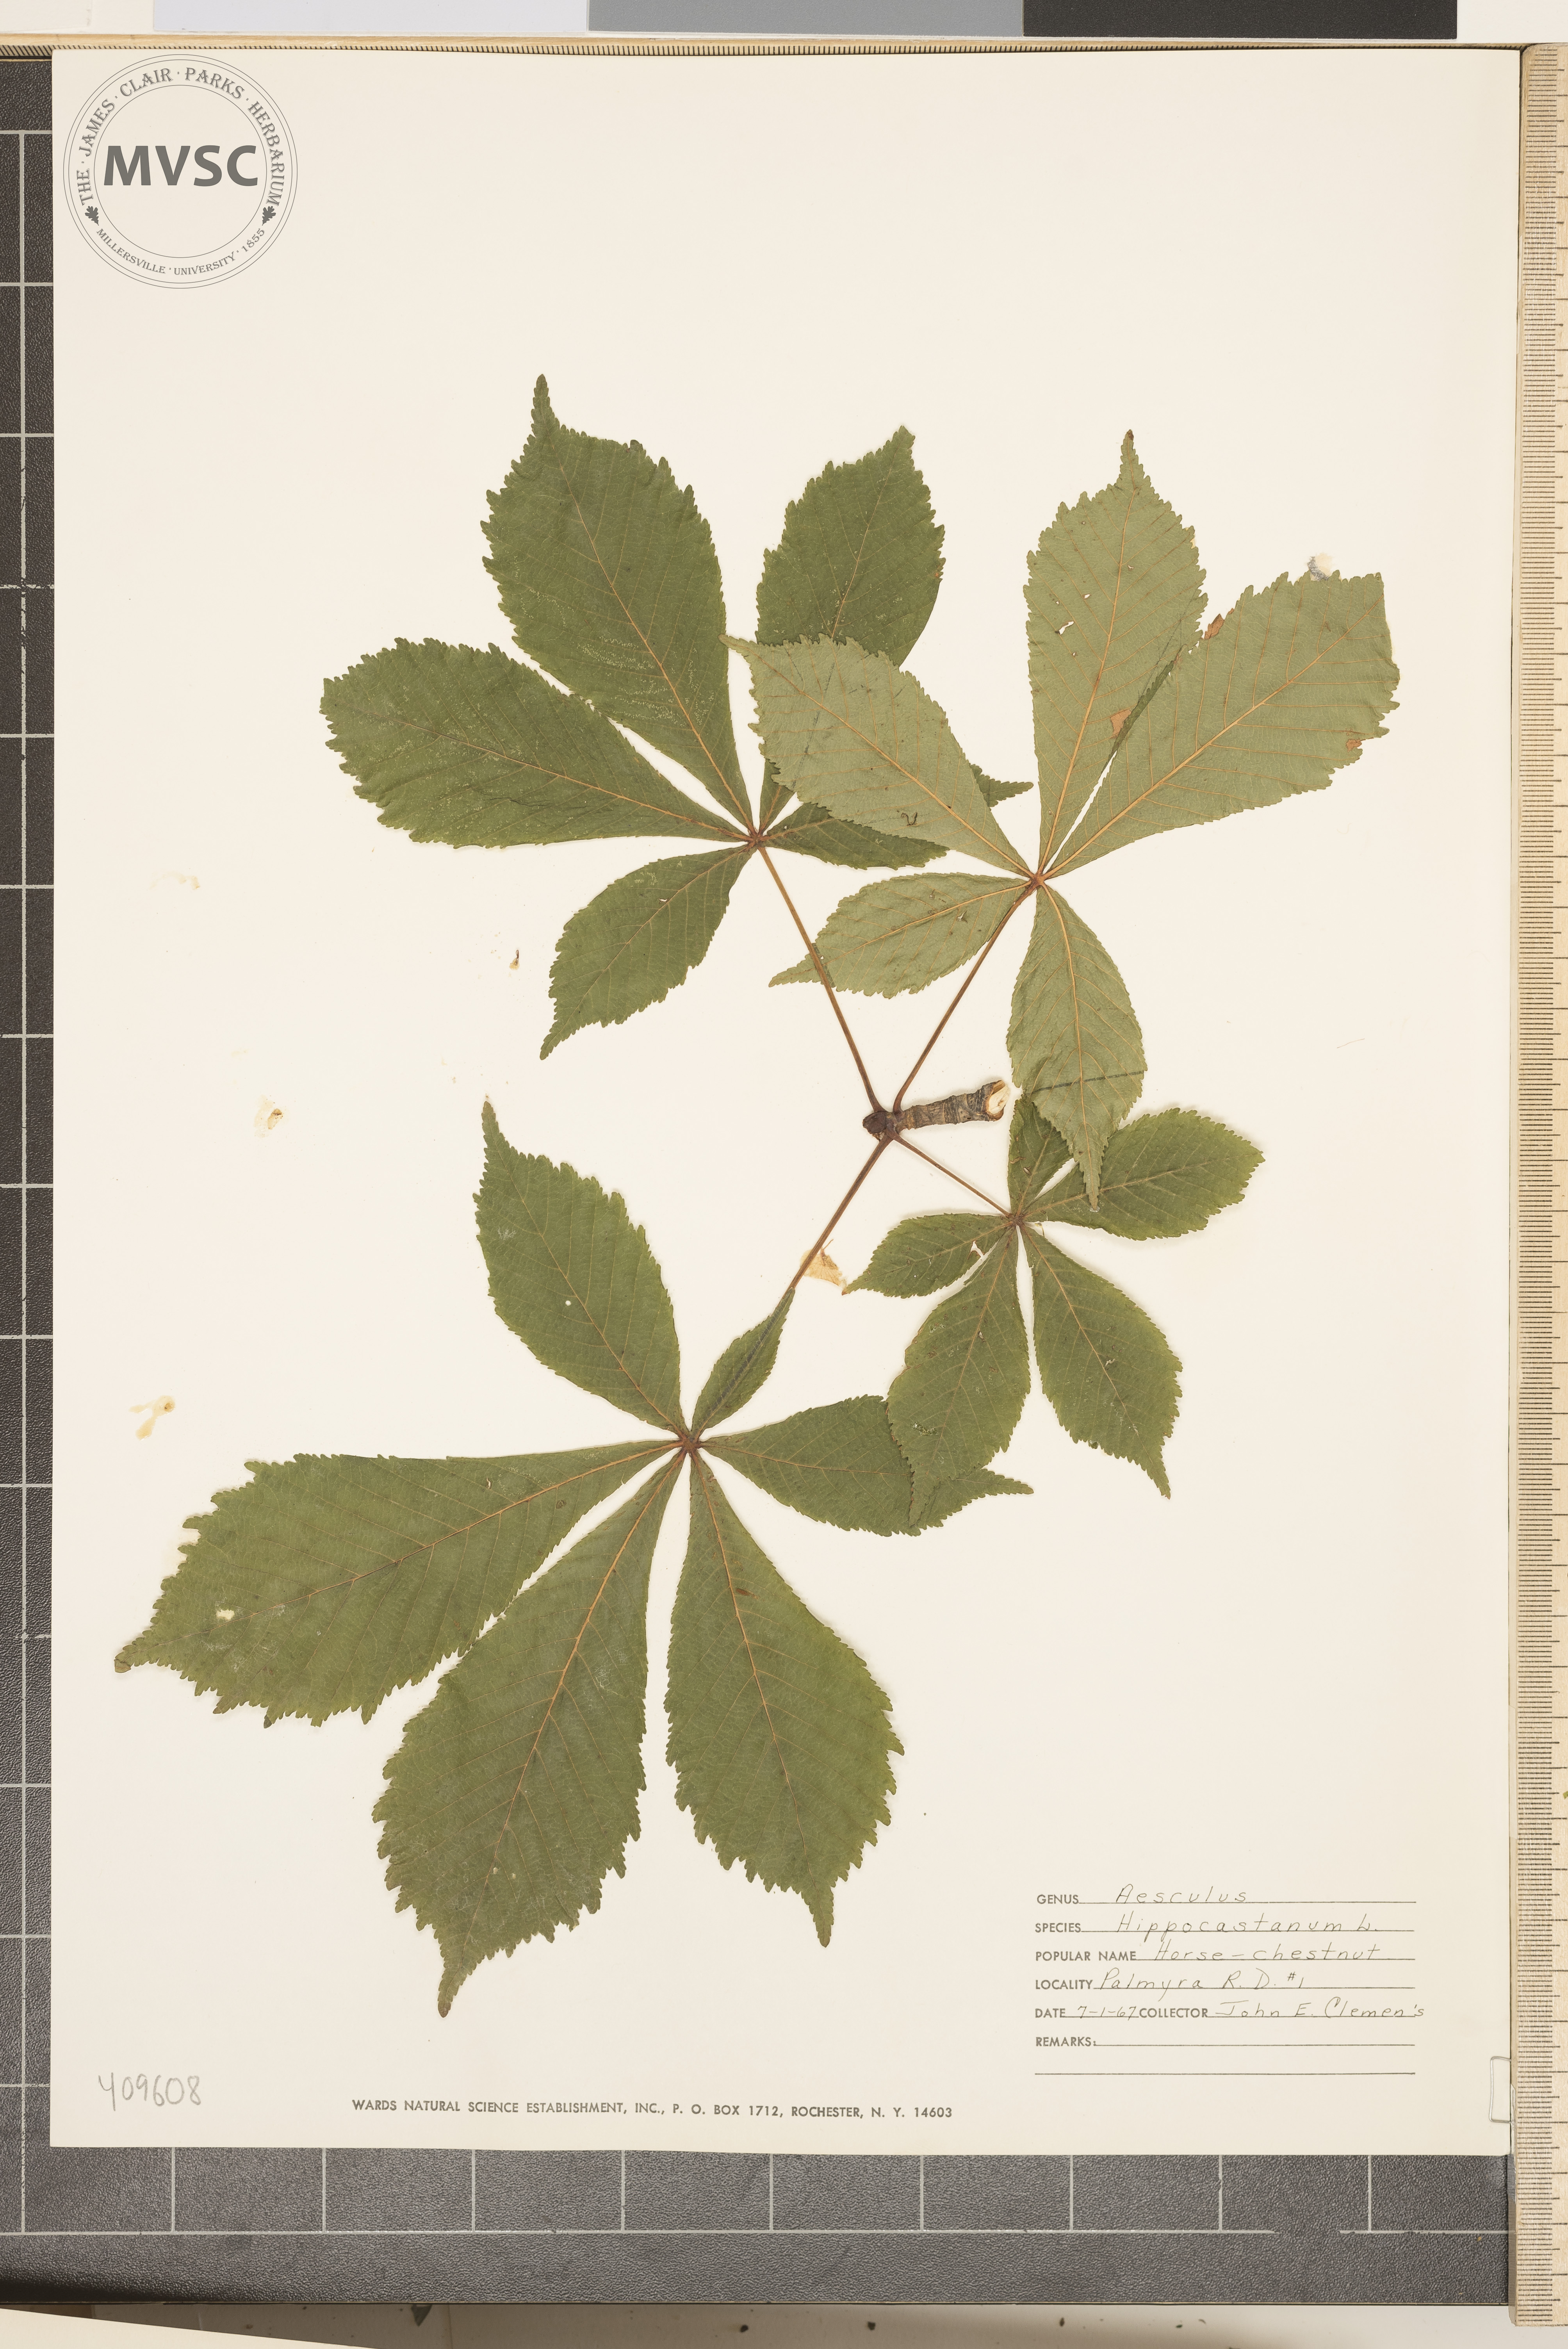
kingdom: Plantae
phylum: Tracheophyta
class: Magnoliopsida
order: Sapindales
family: Sapindaceae
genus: Aesculus
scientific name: Aesculus hippocastanum
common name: Horse-chestnut
